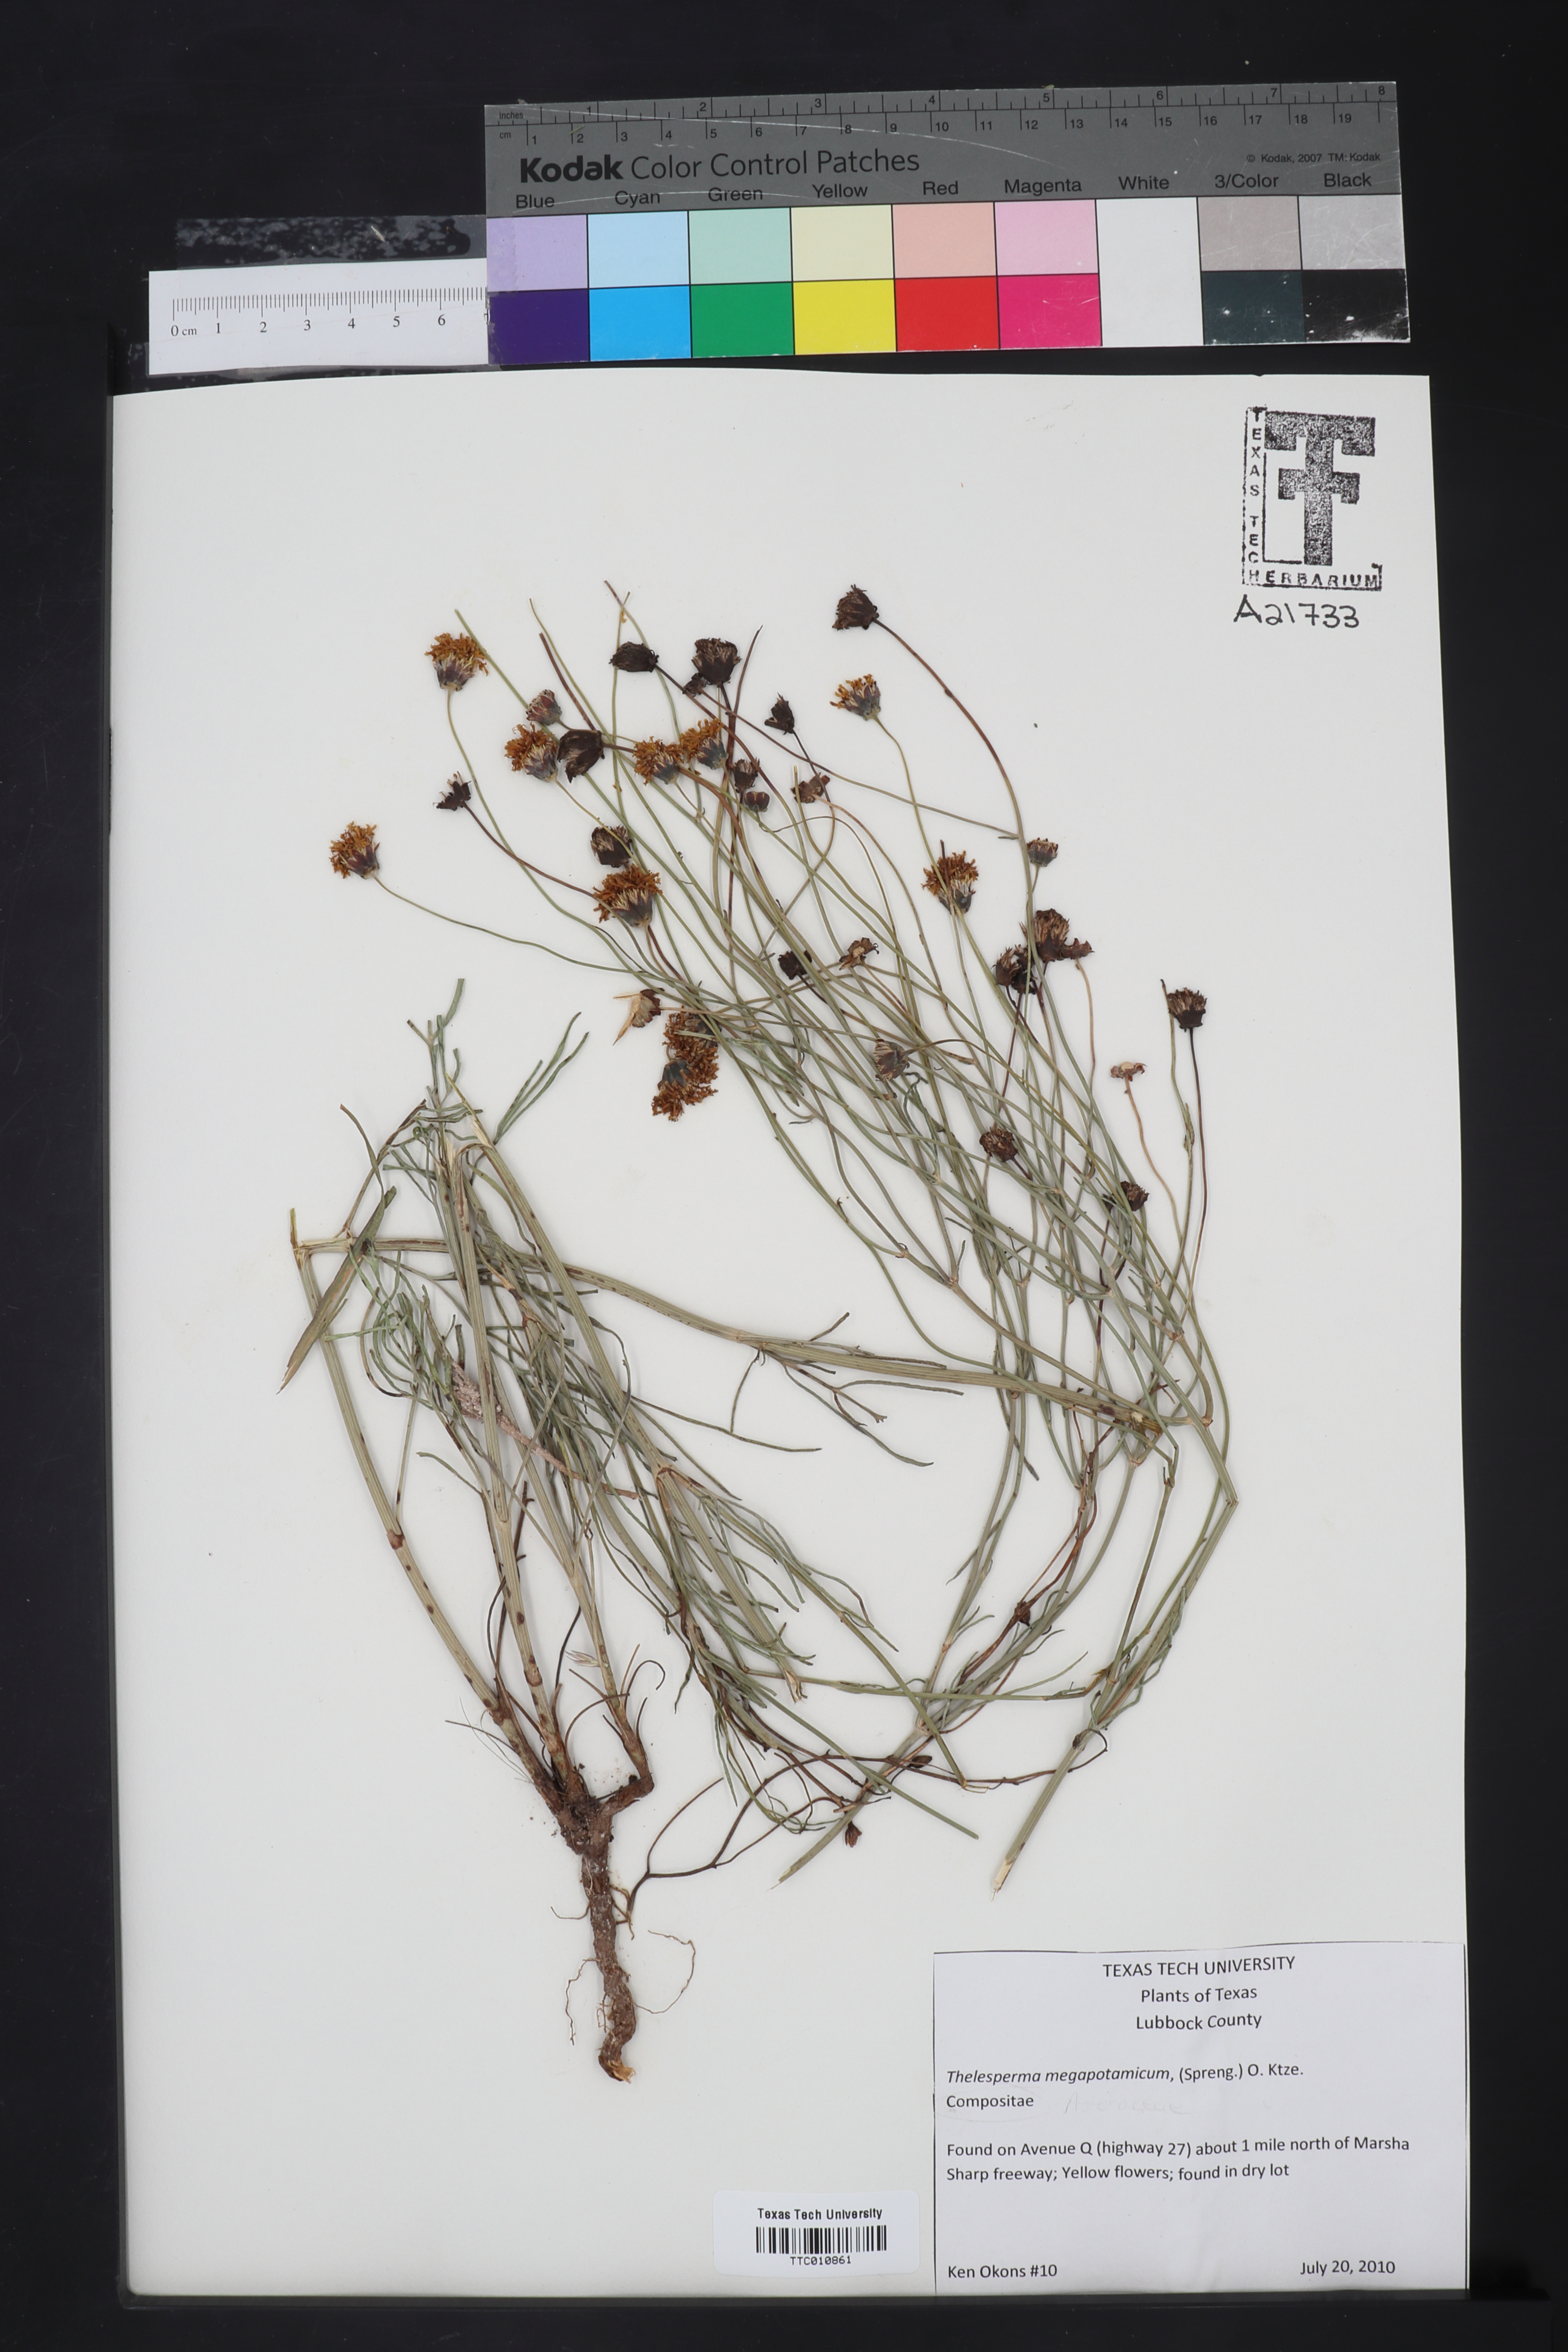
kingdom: Plantae
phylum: Tracheophyta
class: Magnoliopsida
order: Asterales
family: Asteraceae
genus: Thelesperma
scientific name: Thelesperma megapotamicum
